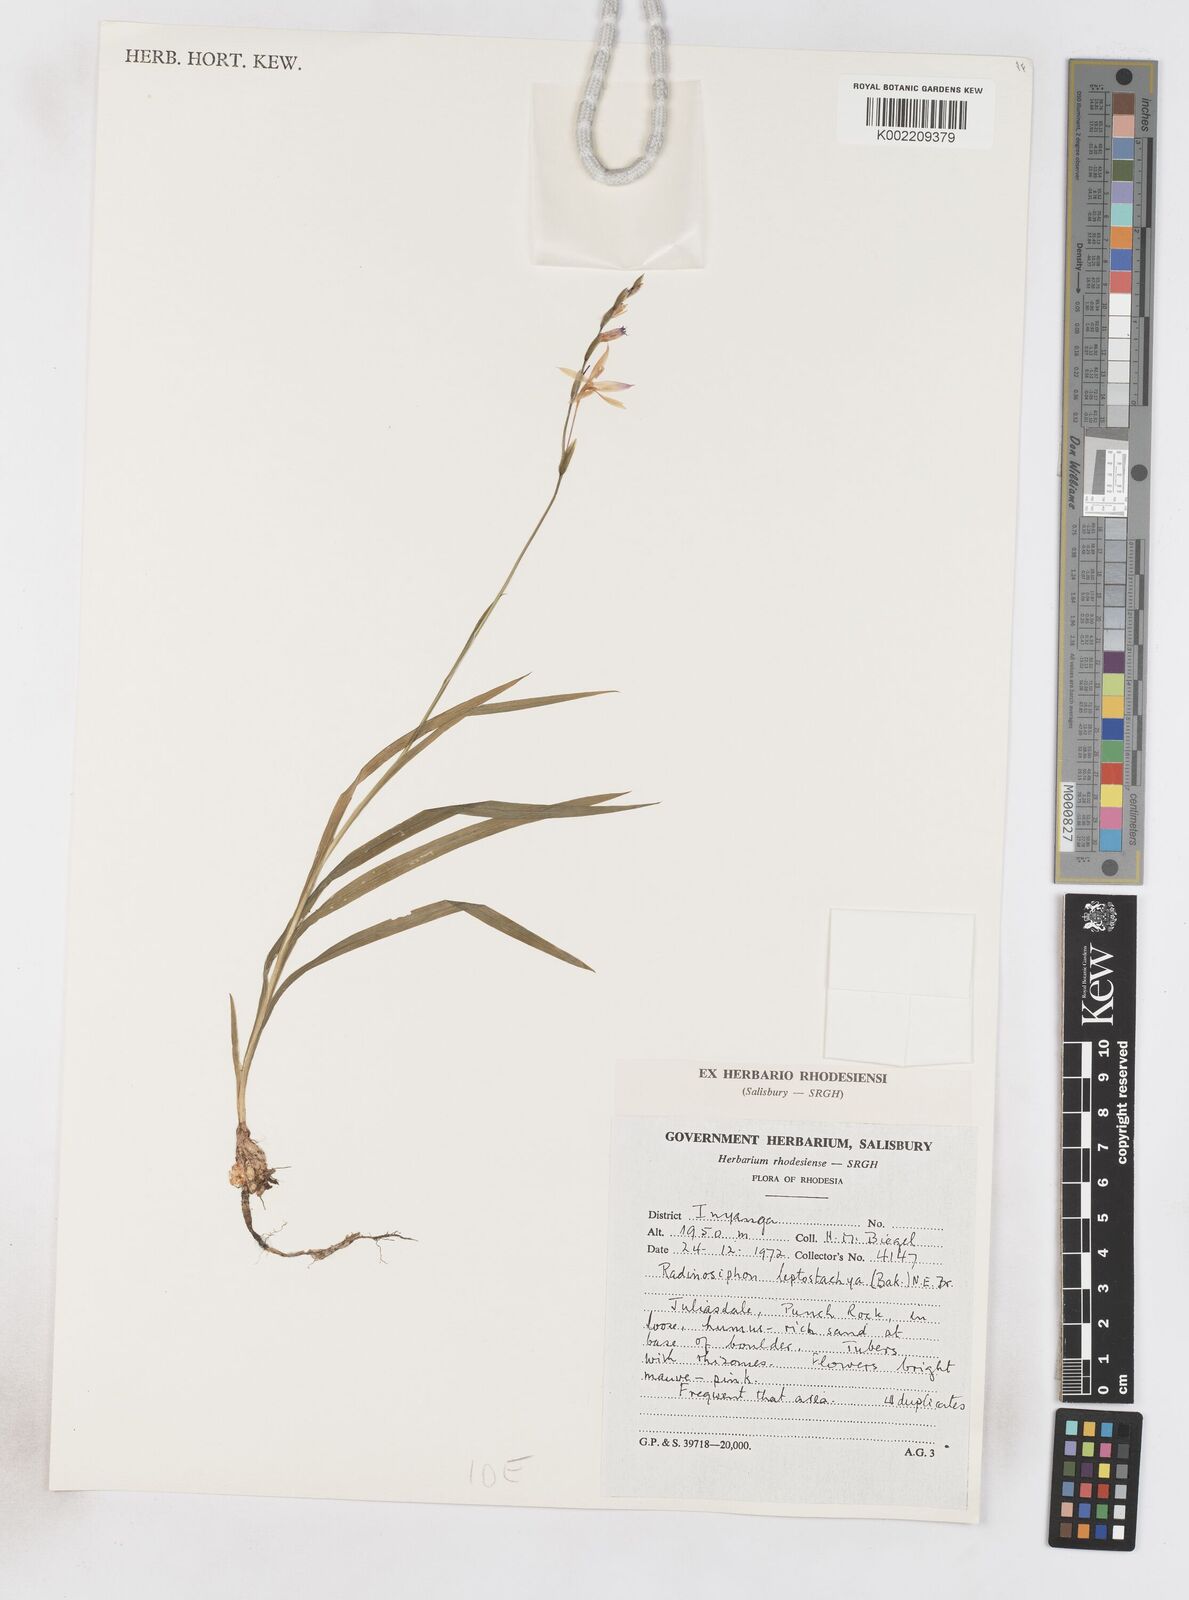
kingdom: Plantae
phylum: Tracheophyta
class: Liliopsida
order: Asparagales
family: Iridaceae
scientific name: Iridaceae
